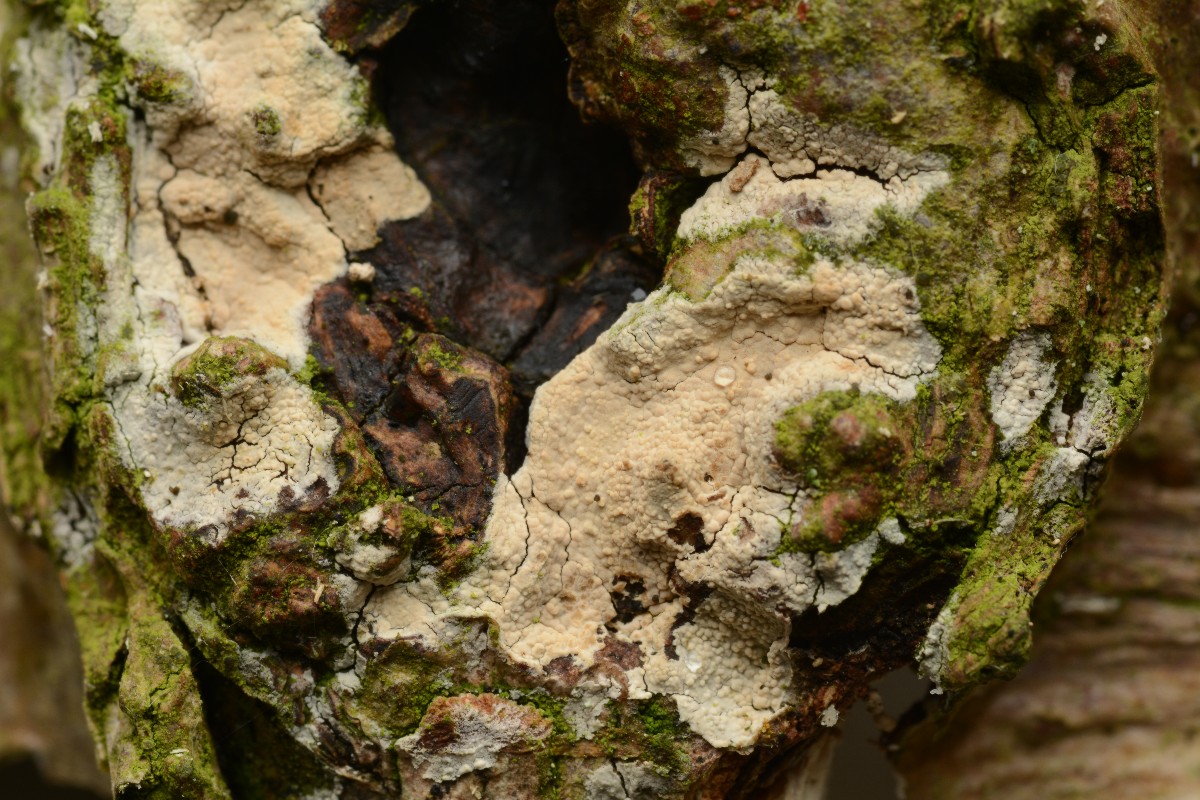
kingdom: Fungi
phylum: Basidiomycota
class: Agaricomycetes
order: Trechisporales
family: Hydnodontaceae
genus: Brevicellicium
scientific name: Brevicellicium olivascens
